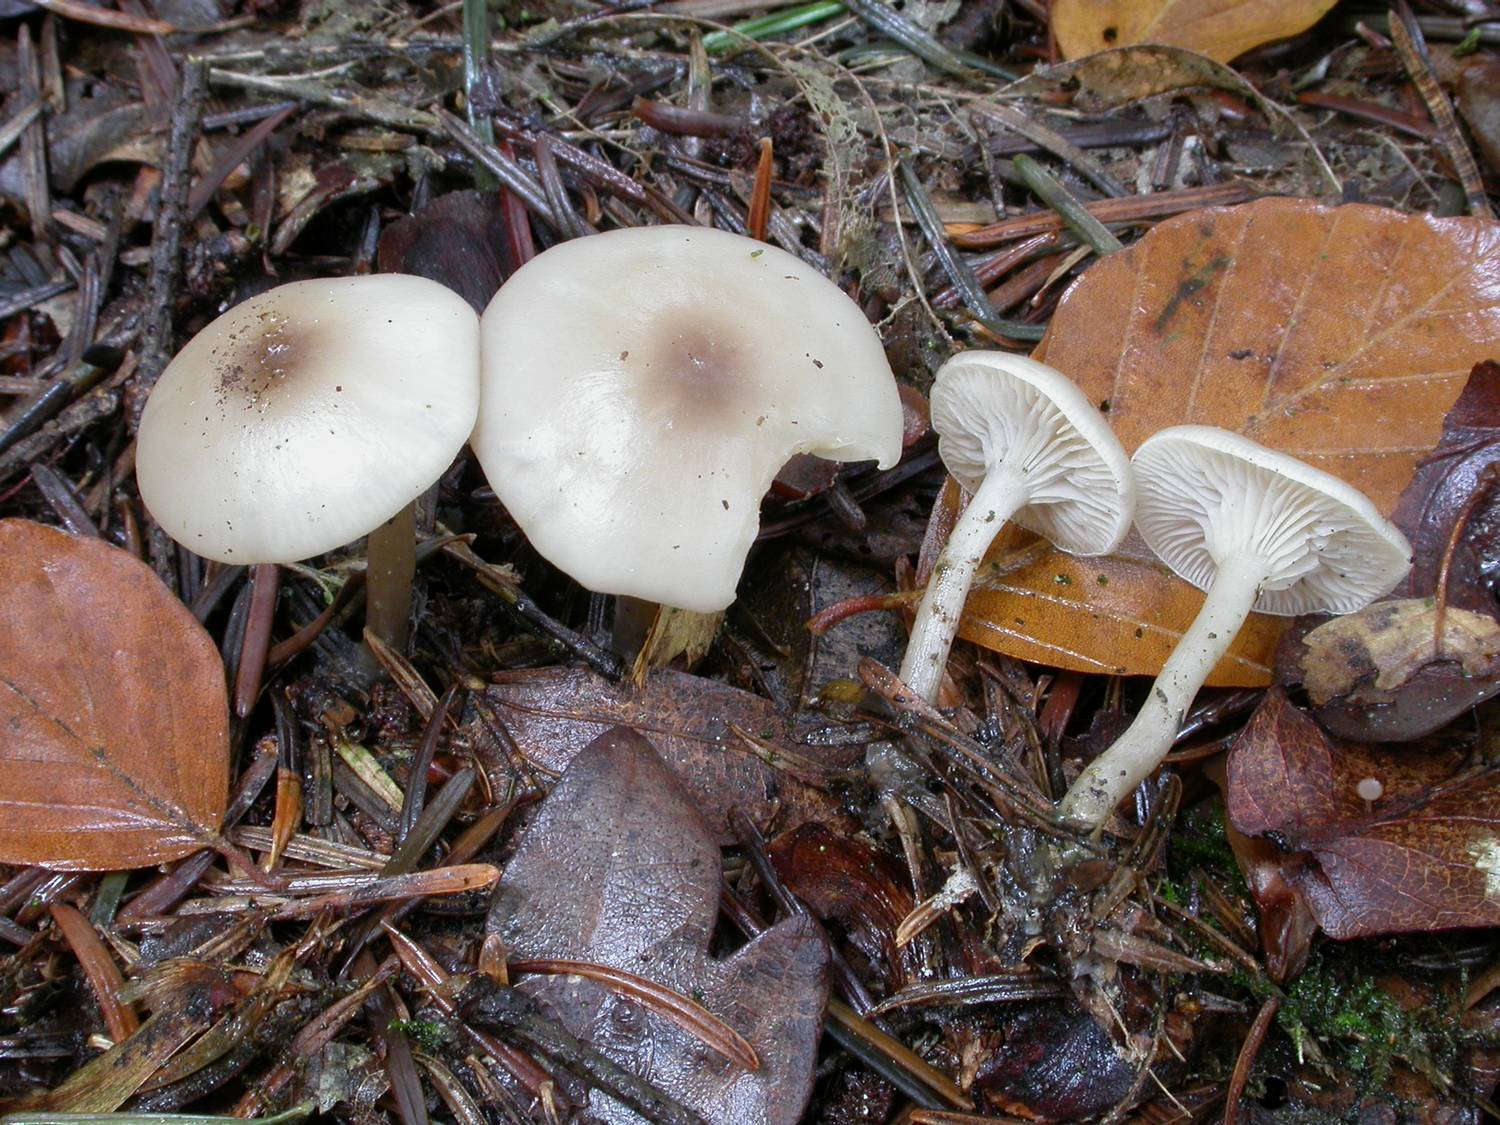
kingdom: Fungi
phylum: Basidiomycota
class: Agaricomycetes
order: Agaricales
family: Tricholomataceae
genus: Clitocybe
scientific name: Clitocybe metachroa
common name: grå tragthat
